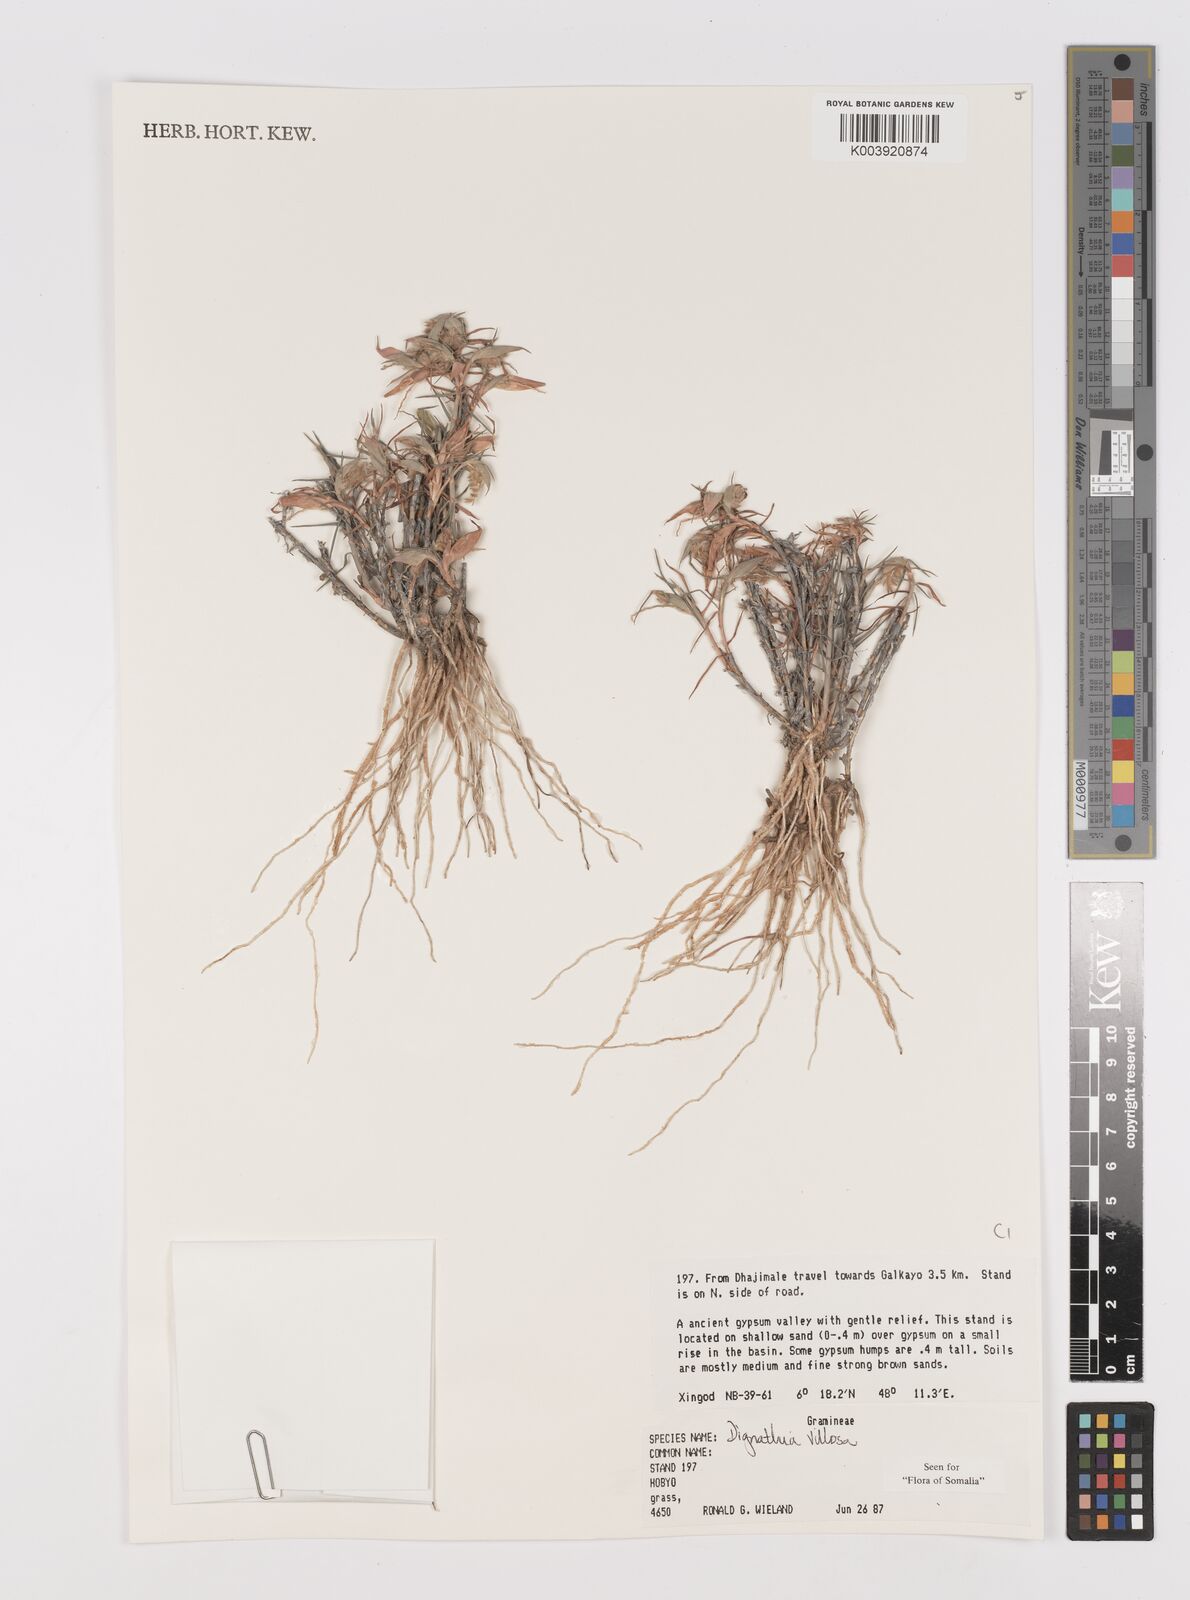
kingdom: Plantae
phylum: Tracheophyta
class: Liliopsida
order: Poales
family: Poaceae
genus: Dignathia
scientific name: Dignathia villosa
